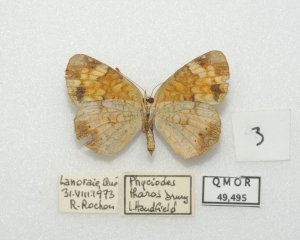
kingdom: Animalia
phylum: Arthropoda
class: Insecta
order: Lepidoptera
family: Nymphalidae
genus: Phyciodes
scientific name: Phyciodes tharos
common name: Northern Crescent
